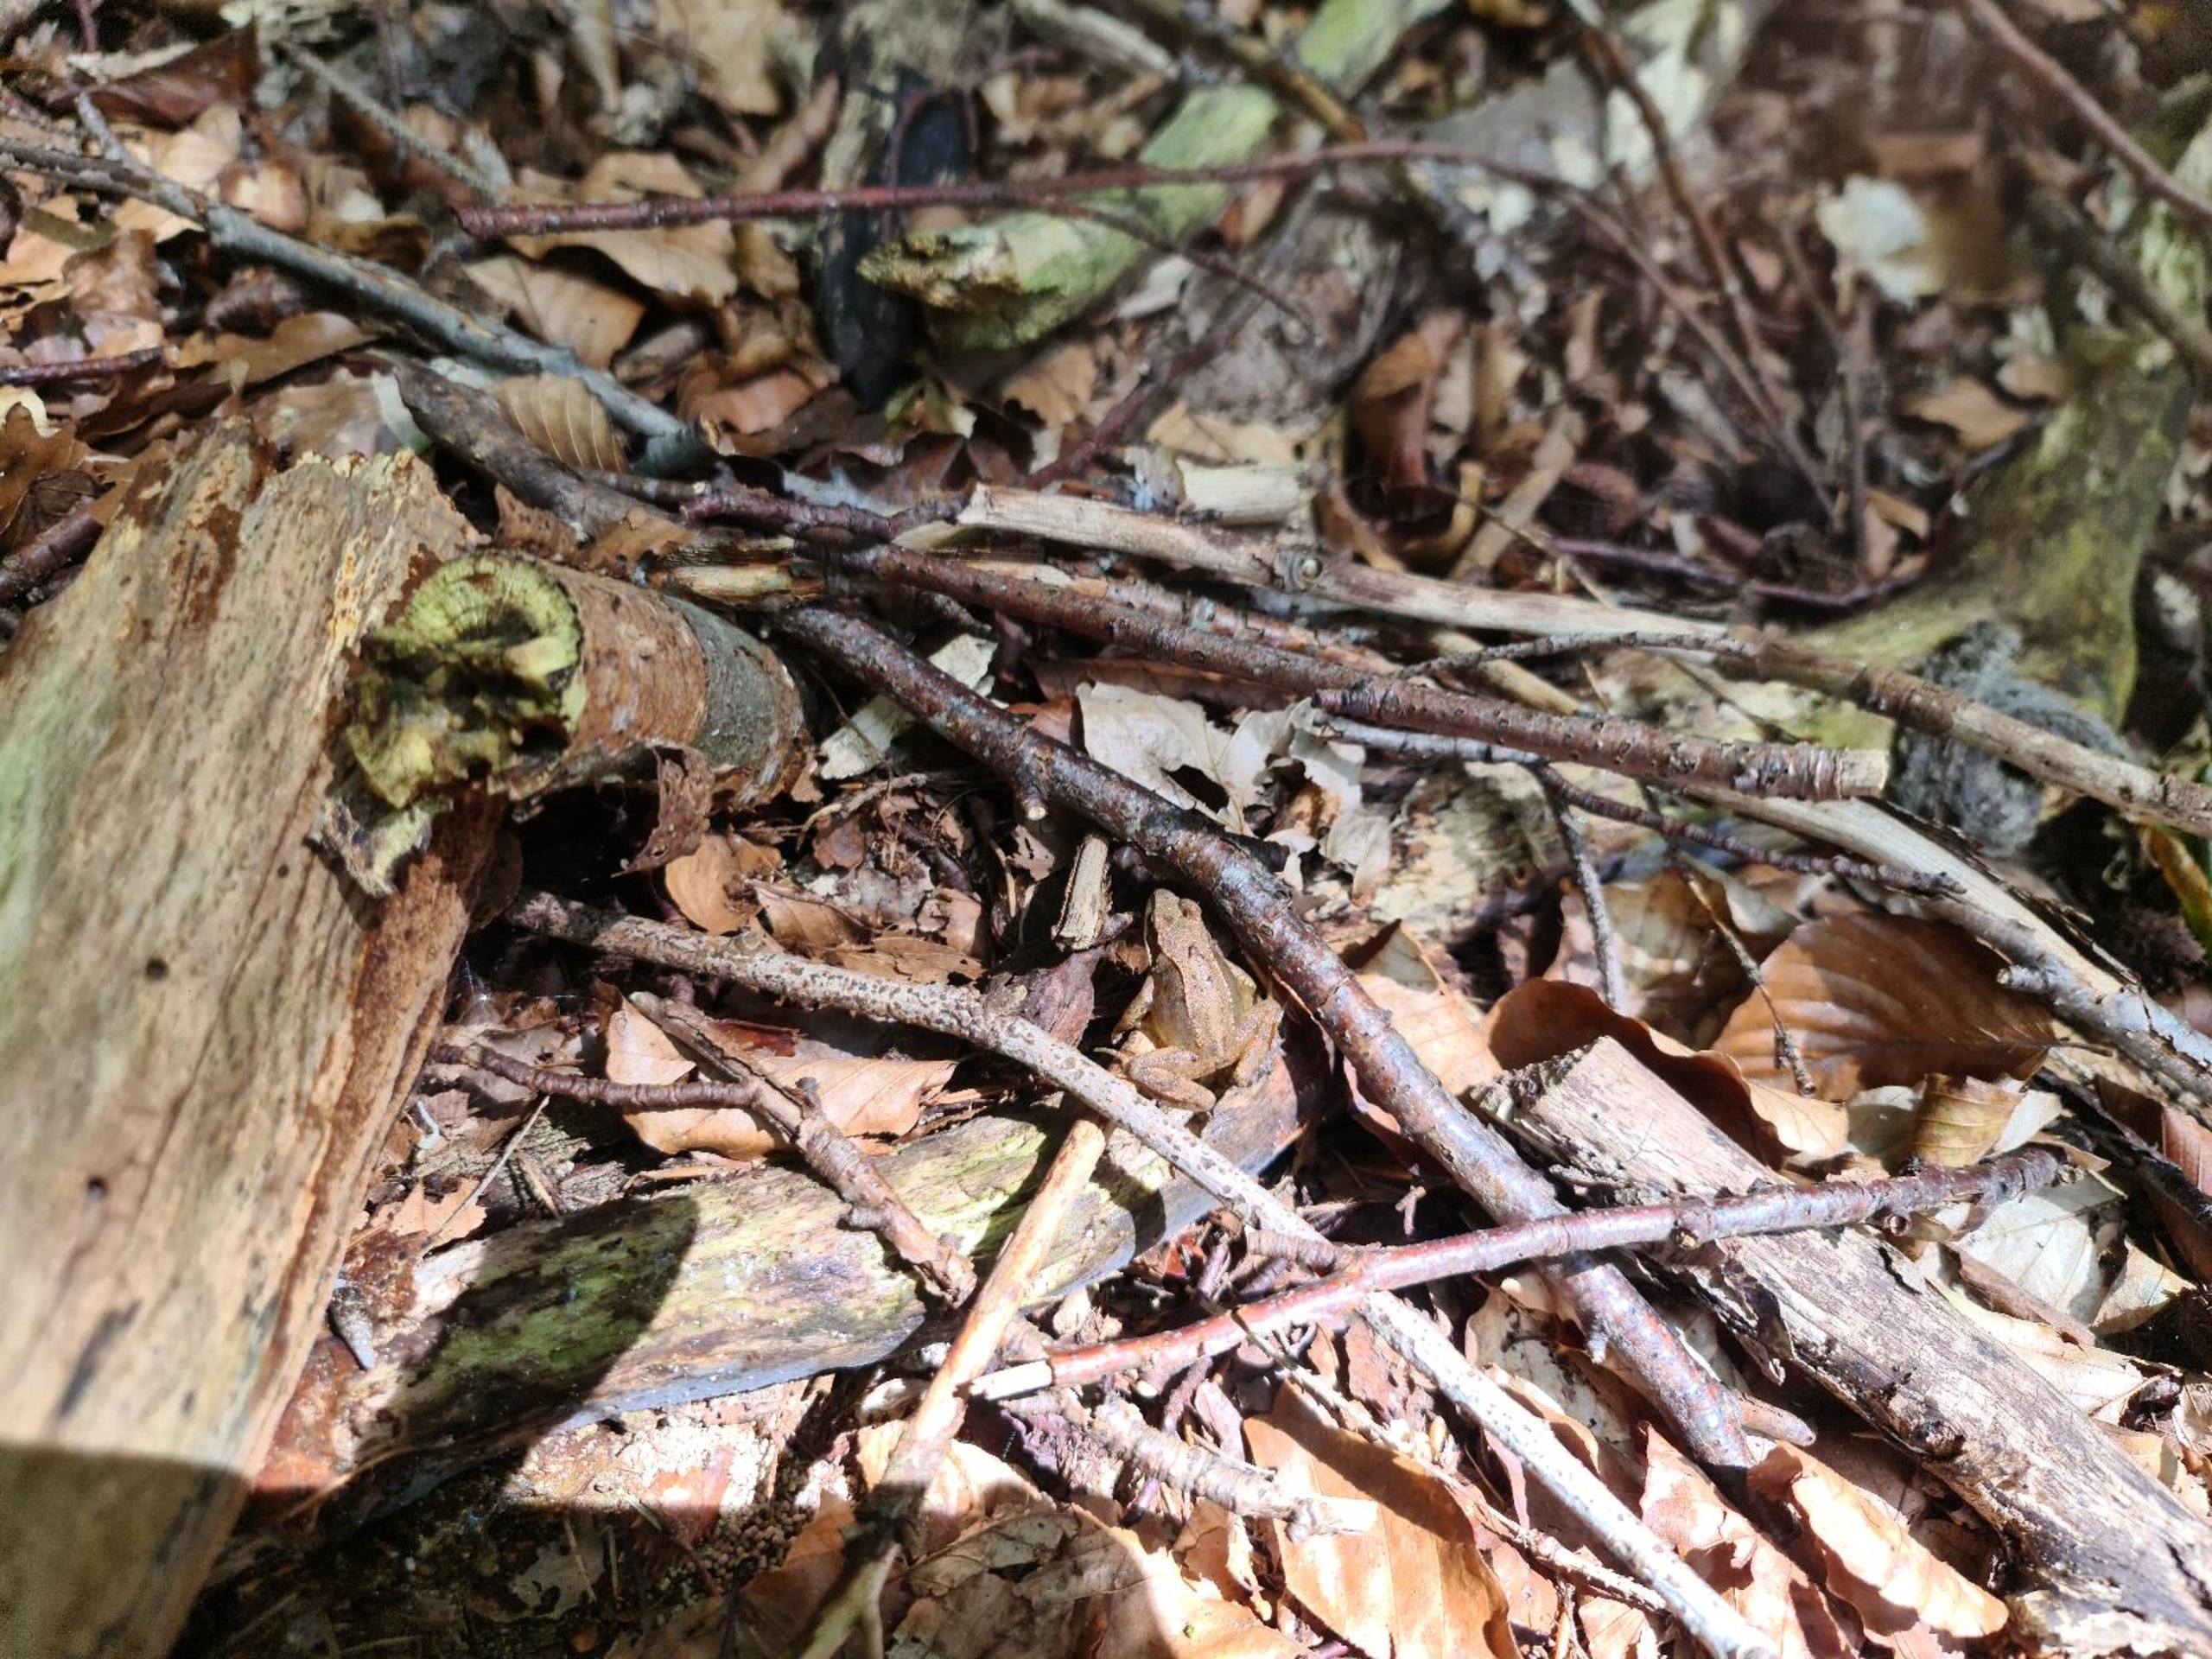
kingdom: Animalia
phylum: Chordata
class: Amphibia
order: Anura
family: Ranidae
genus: Rana
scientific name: Rana temporaria
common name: Butsnudet frø
